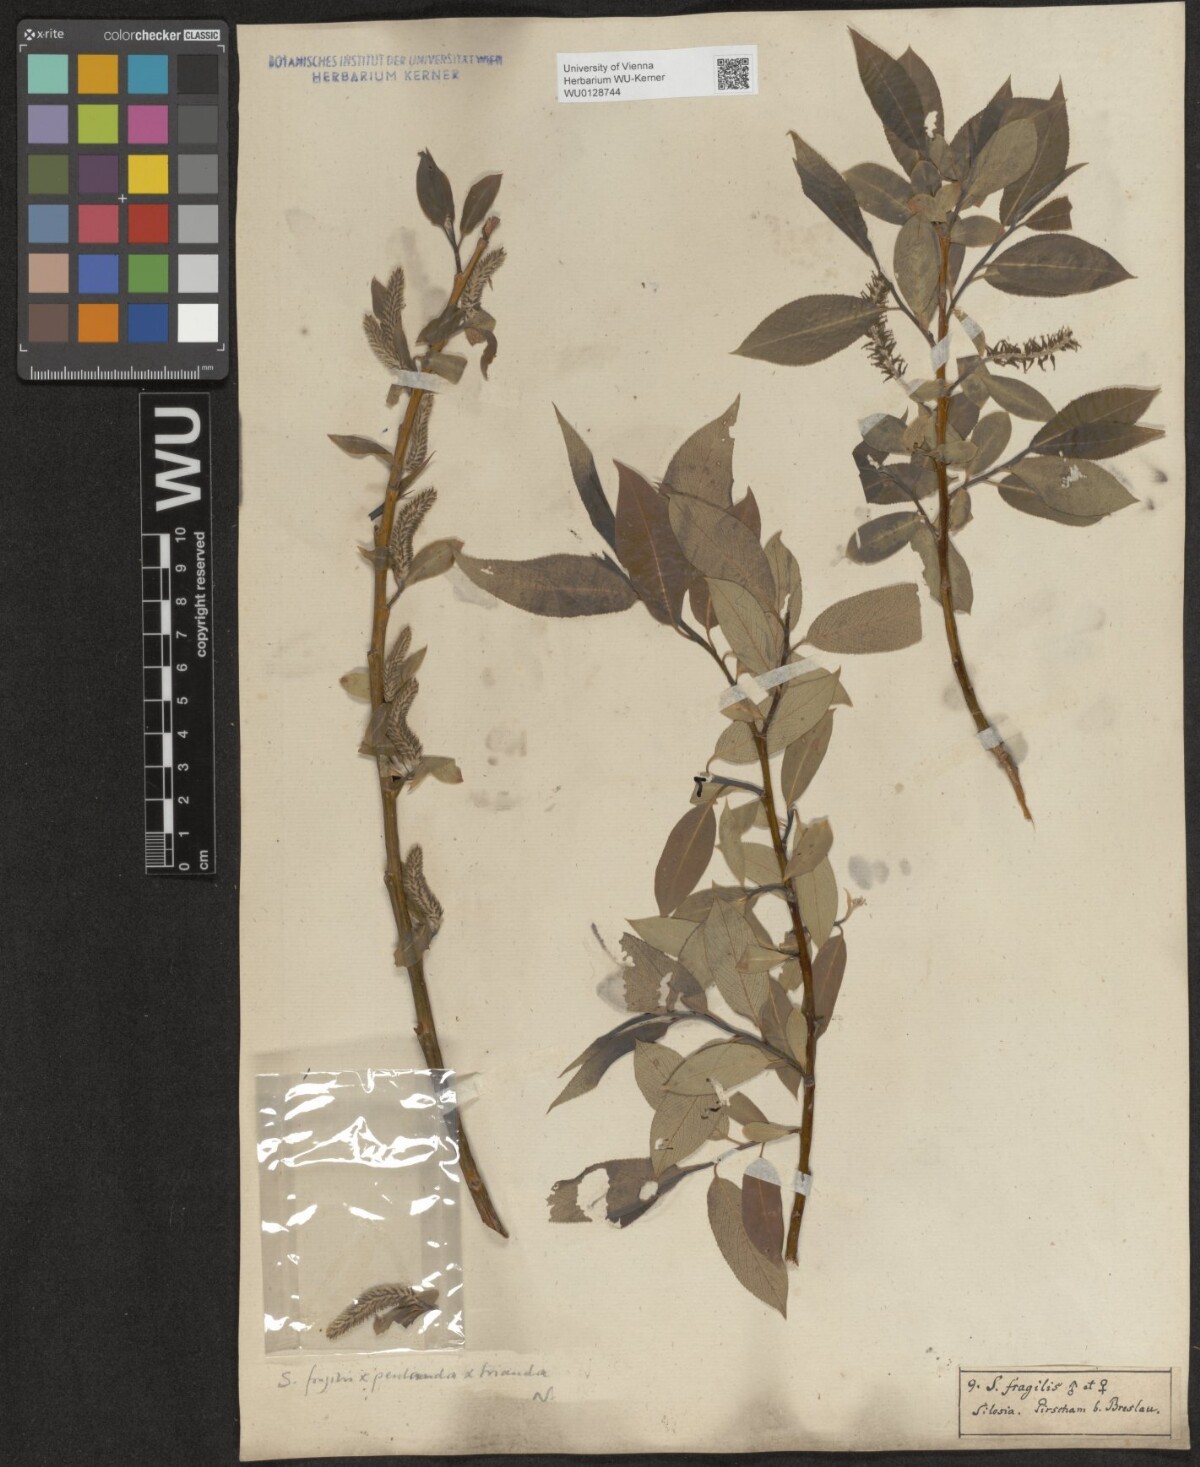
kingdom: Plantae
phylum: Tracheophyta
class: Magnoliopsida
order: Malpighiales
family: Salicaceae
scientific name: Salicaceae
